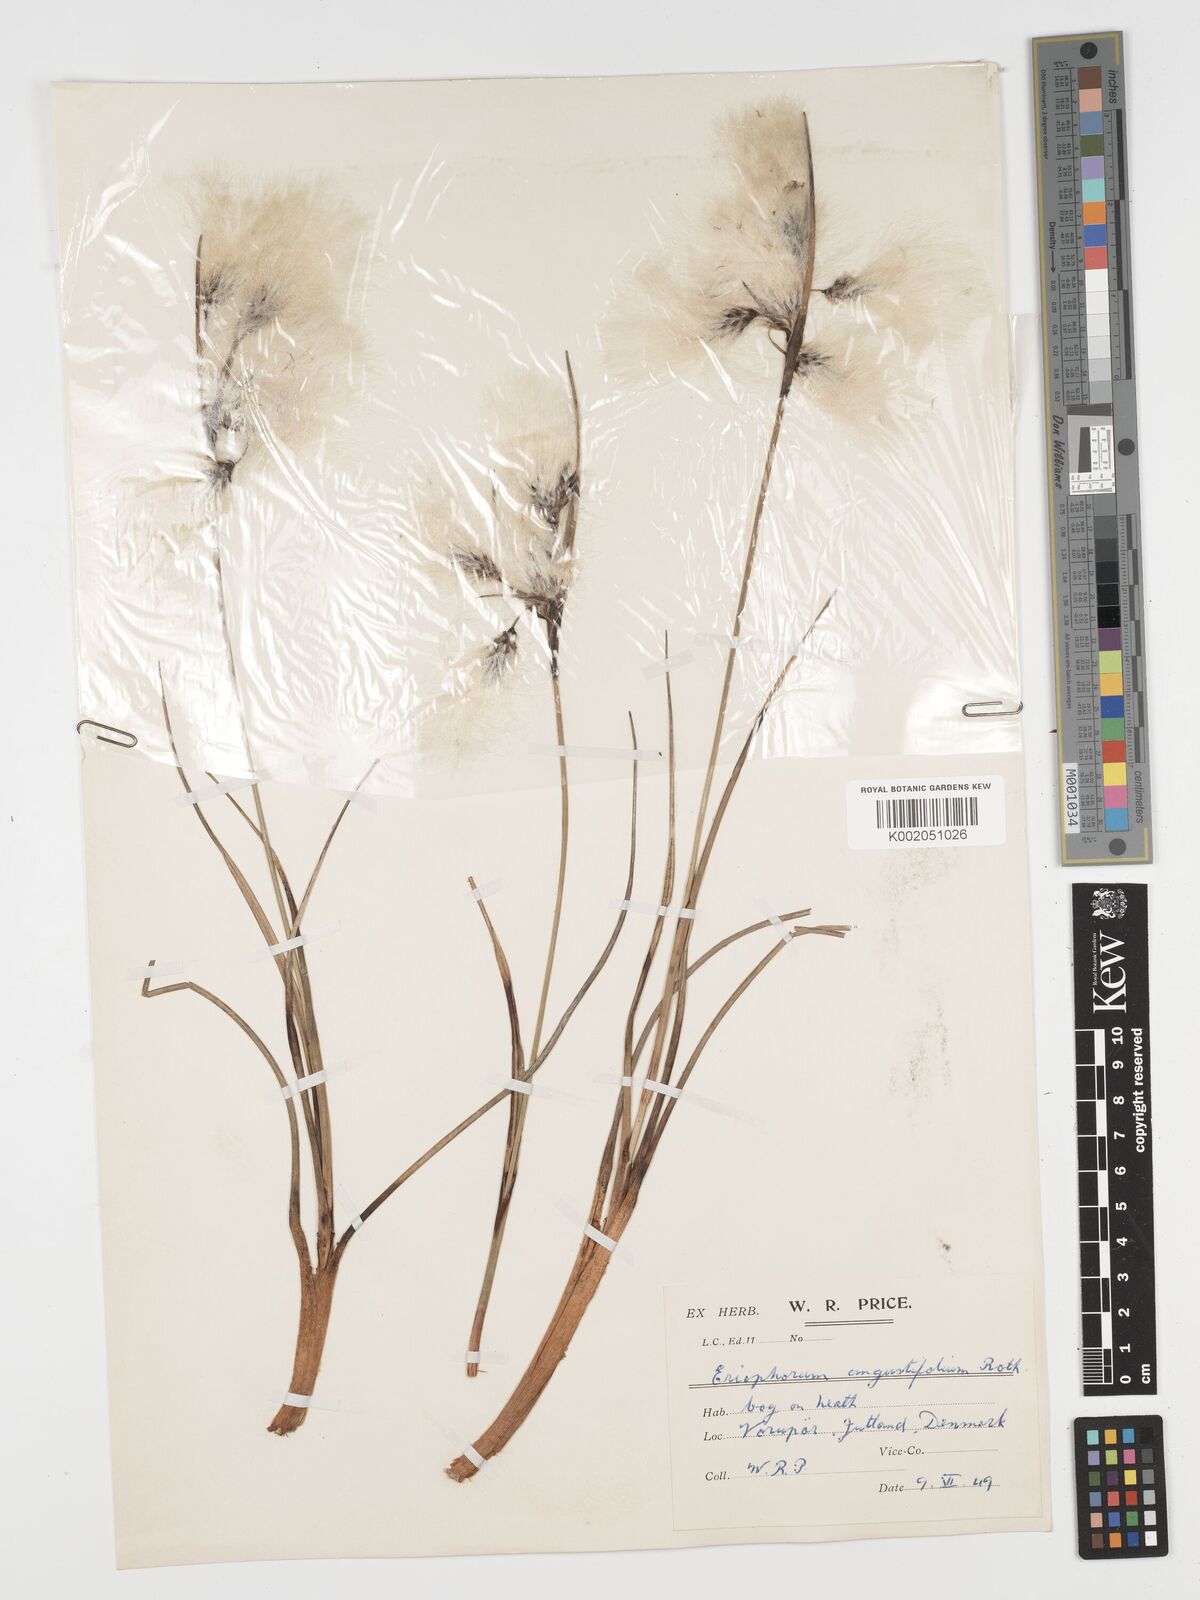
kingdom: Plantae
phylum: Tracheophyta
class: Liliopsida
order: Poales
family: Cyperaceae
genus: Eriophorum
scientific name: Eriophorum angustifolium
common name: Common cottongrass
